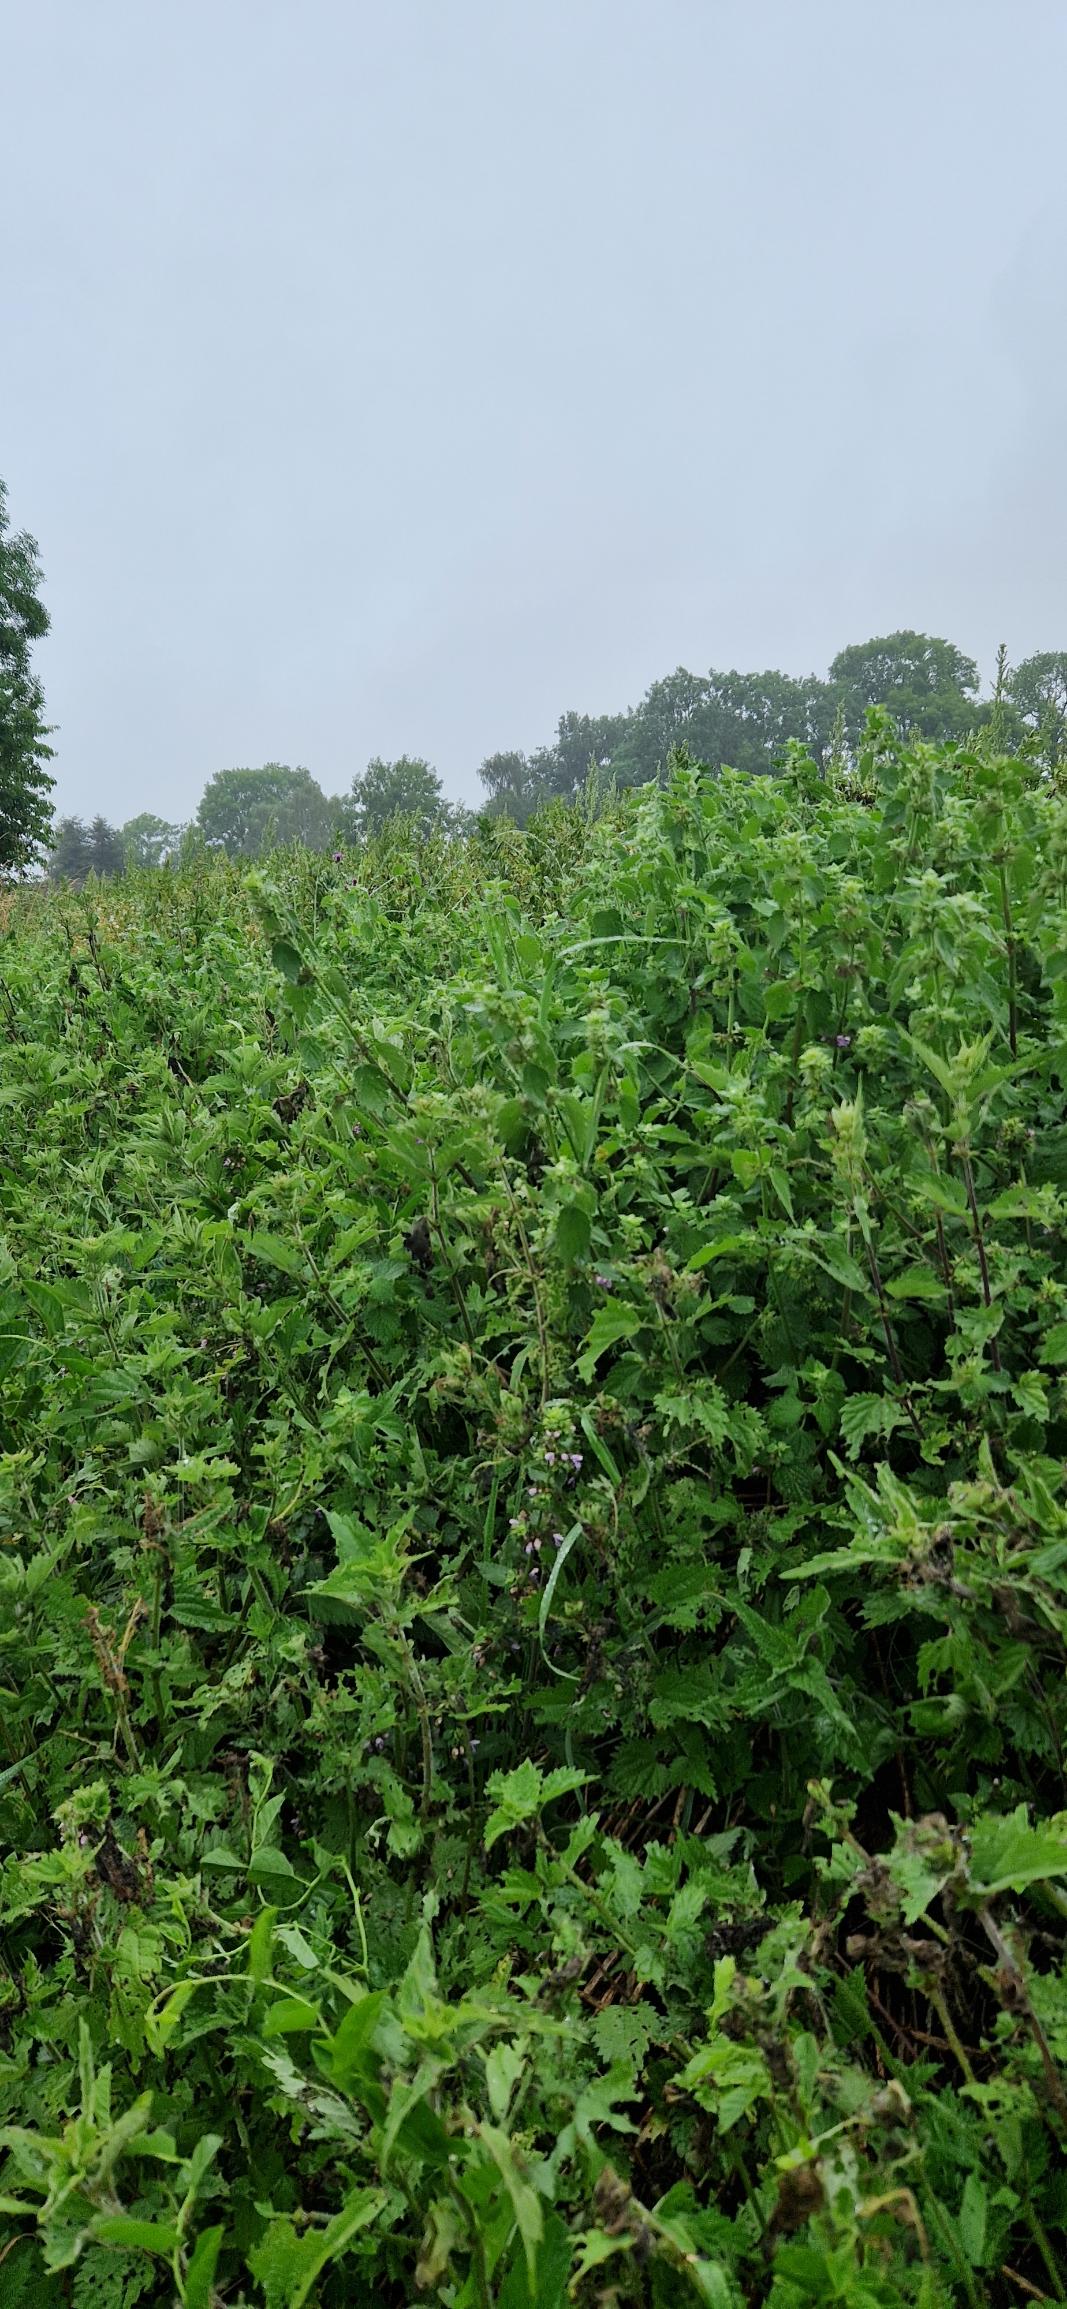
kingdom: Plantae
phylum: Tracheophyta
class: Magnoliopsida
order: Lamiales
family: Lamiaceae
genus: Ballota
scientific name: Ballota nigra
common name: Rød tandbæger
